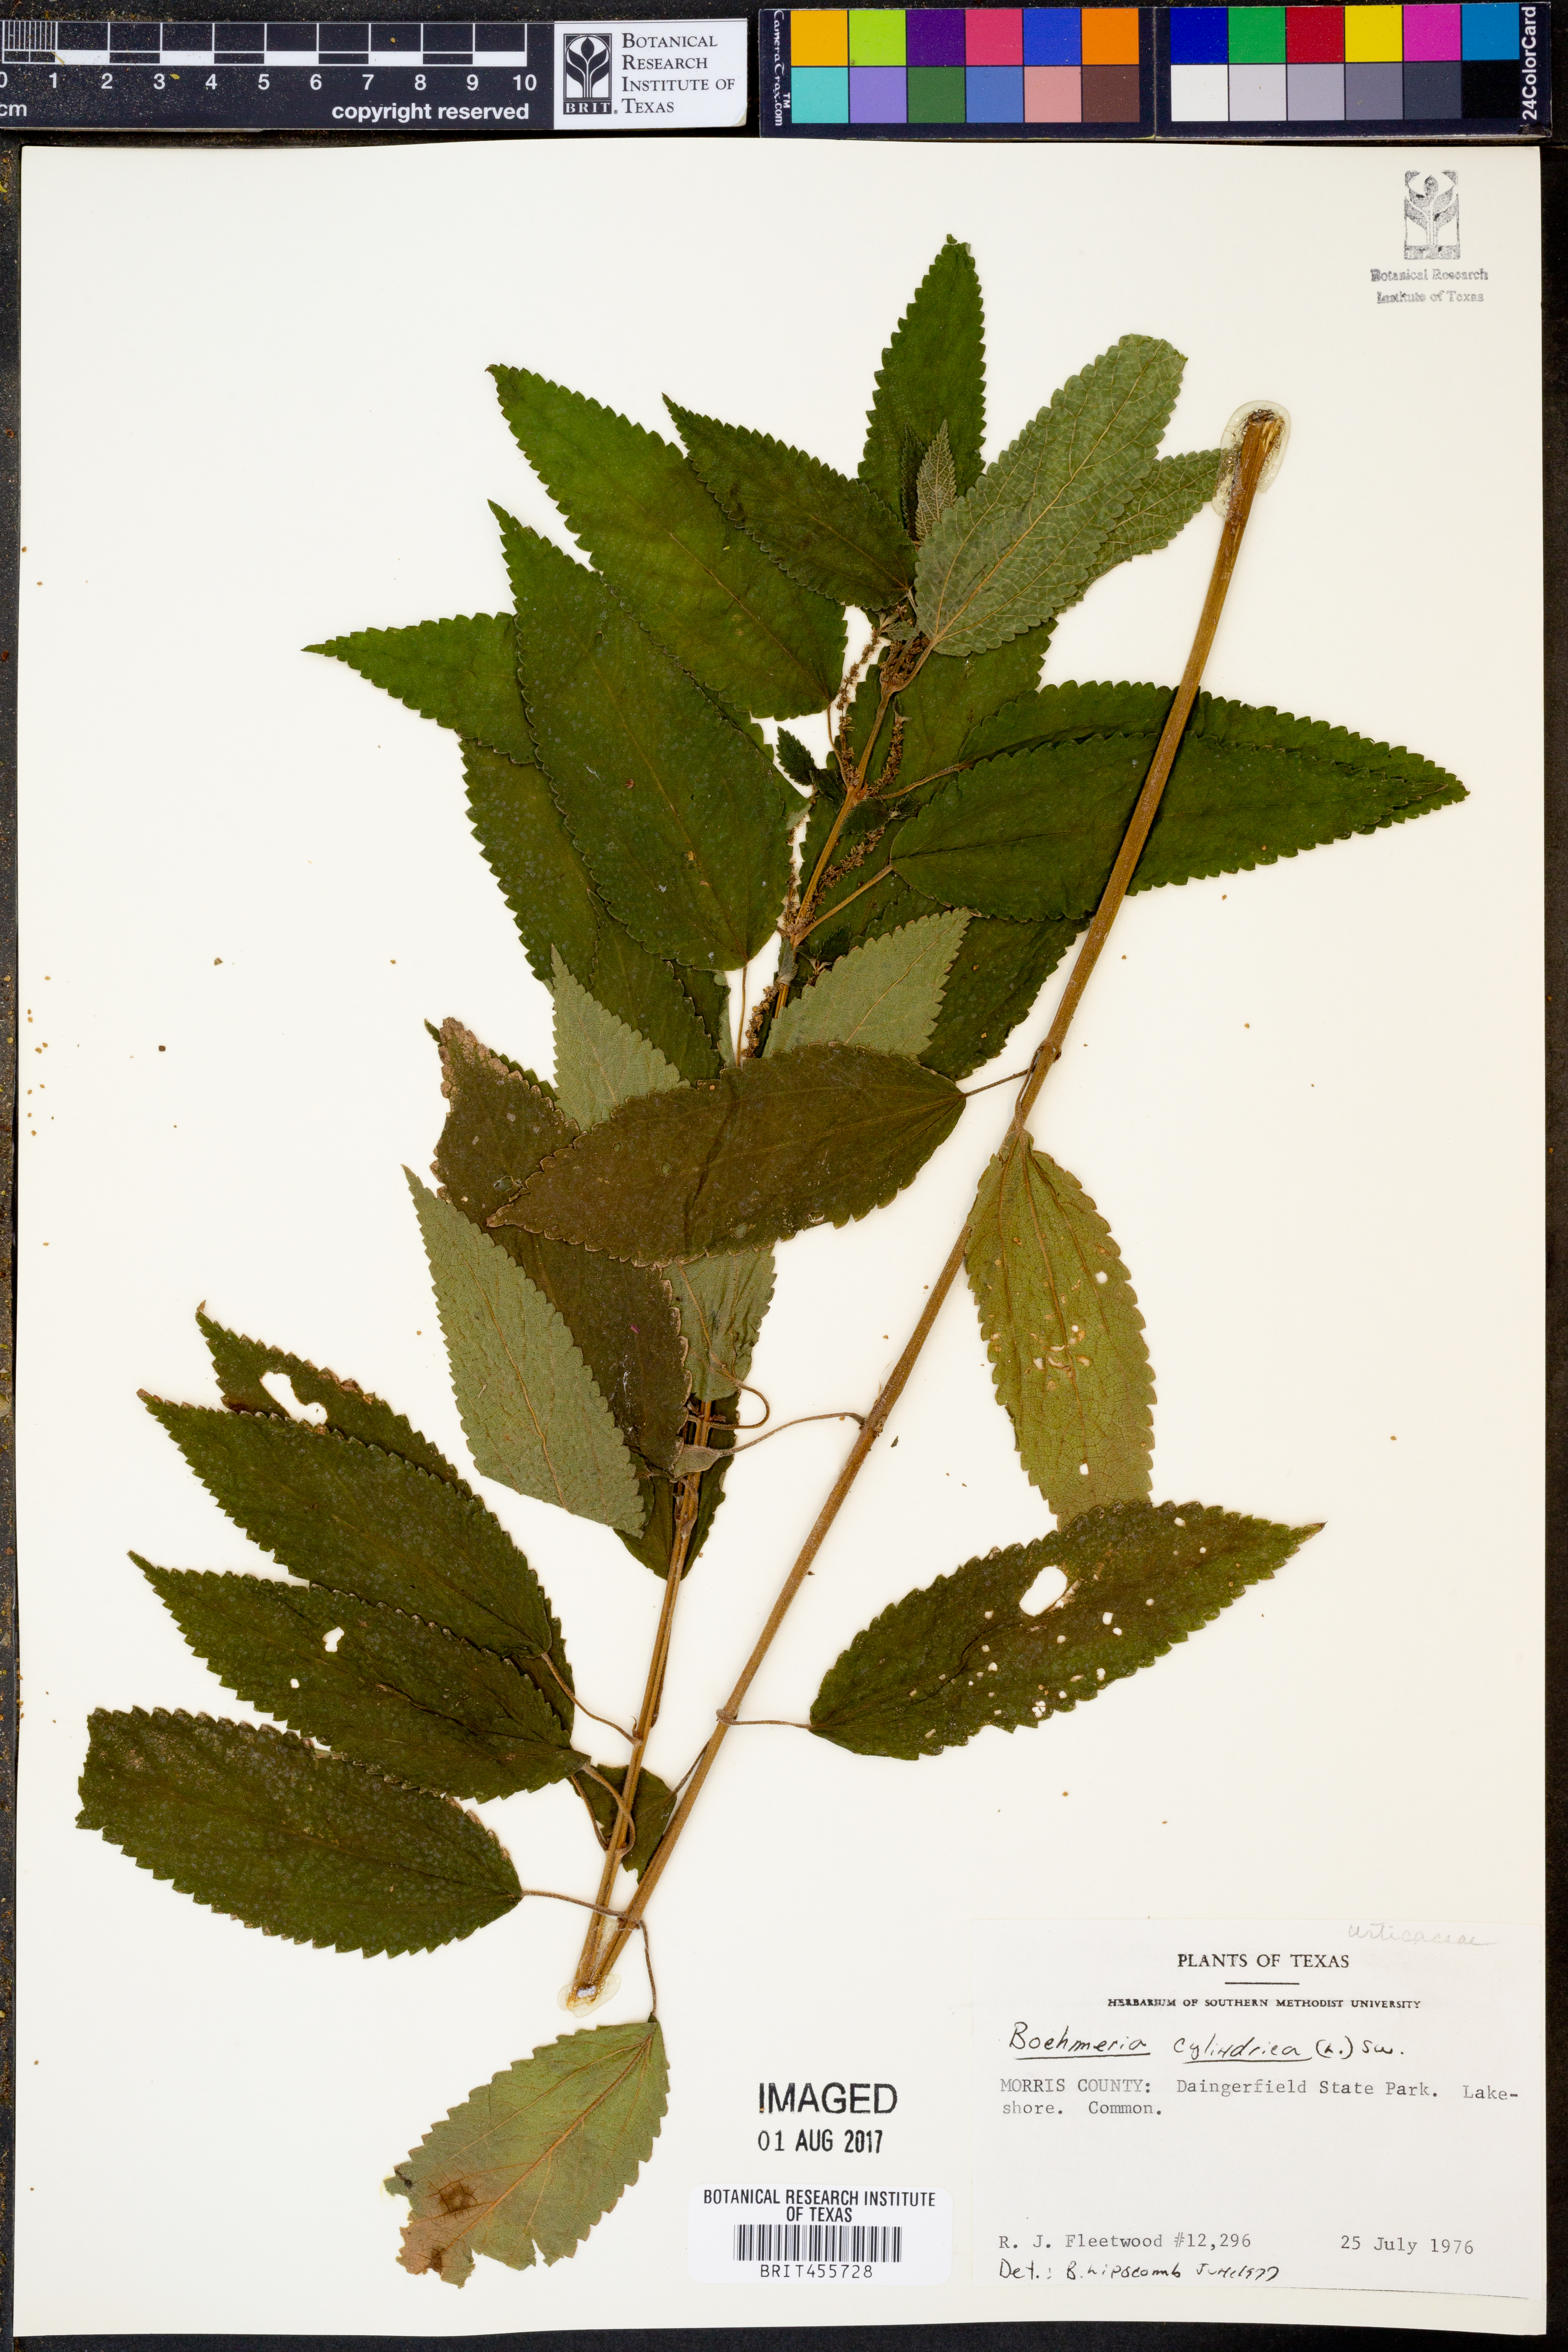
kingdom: Plantae
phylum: Tracheophyta
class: Magnoliopsida
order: Rosales
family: Urticaceae
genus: Boehmeria
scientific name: Boehmeria cylindrica
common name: Bog-hemp
